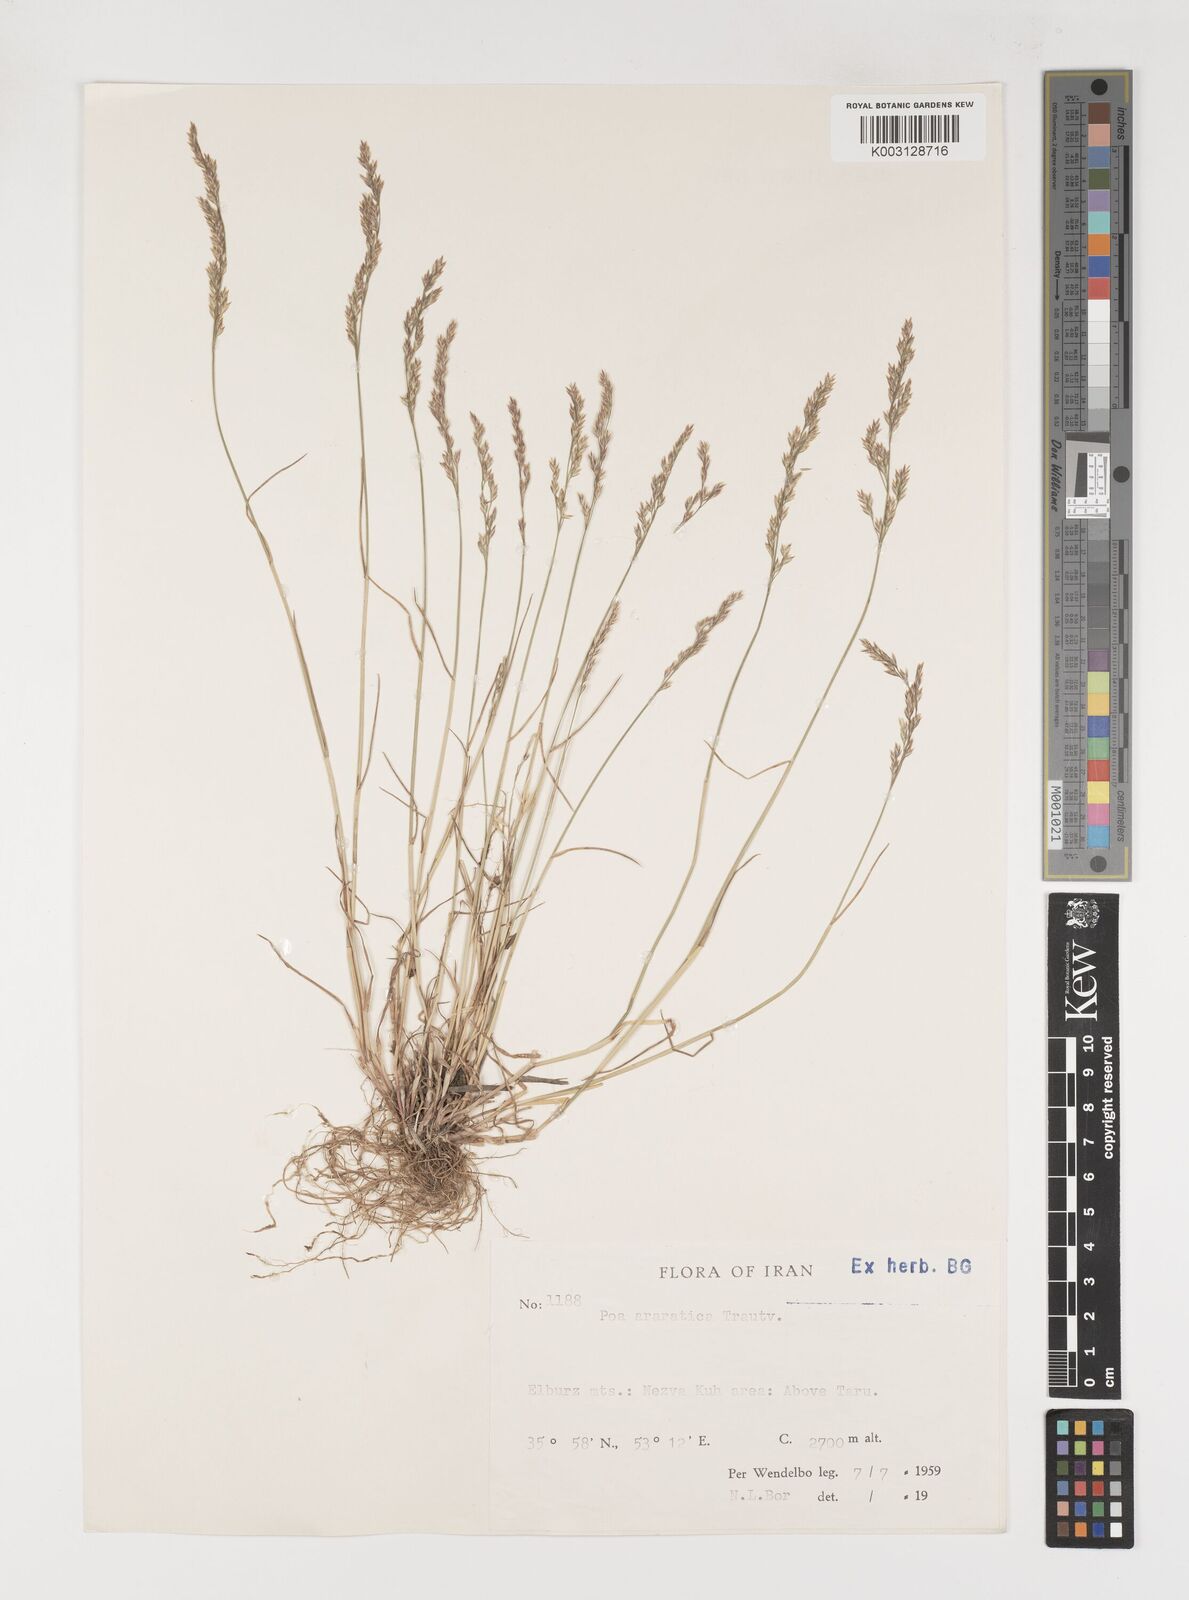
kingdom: Plantae
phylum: Tracheophyta
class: Liliopsida
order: Poales
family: Poaceae
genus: Poa
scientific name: Poa araratica
